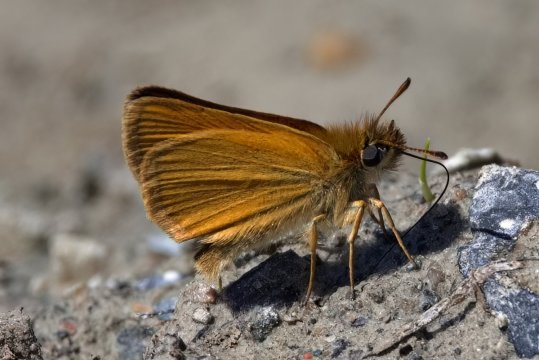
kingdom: Animalia
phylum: Arthropoda
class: Insecta
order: Lepidoptera
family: Hesperiidae
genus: Thymelicus
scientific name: Thymelicus lineola
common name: European Skipper
